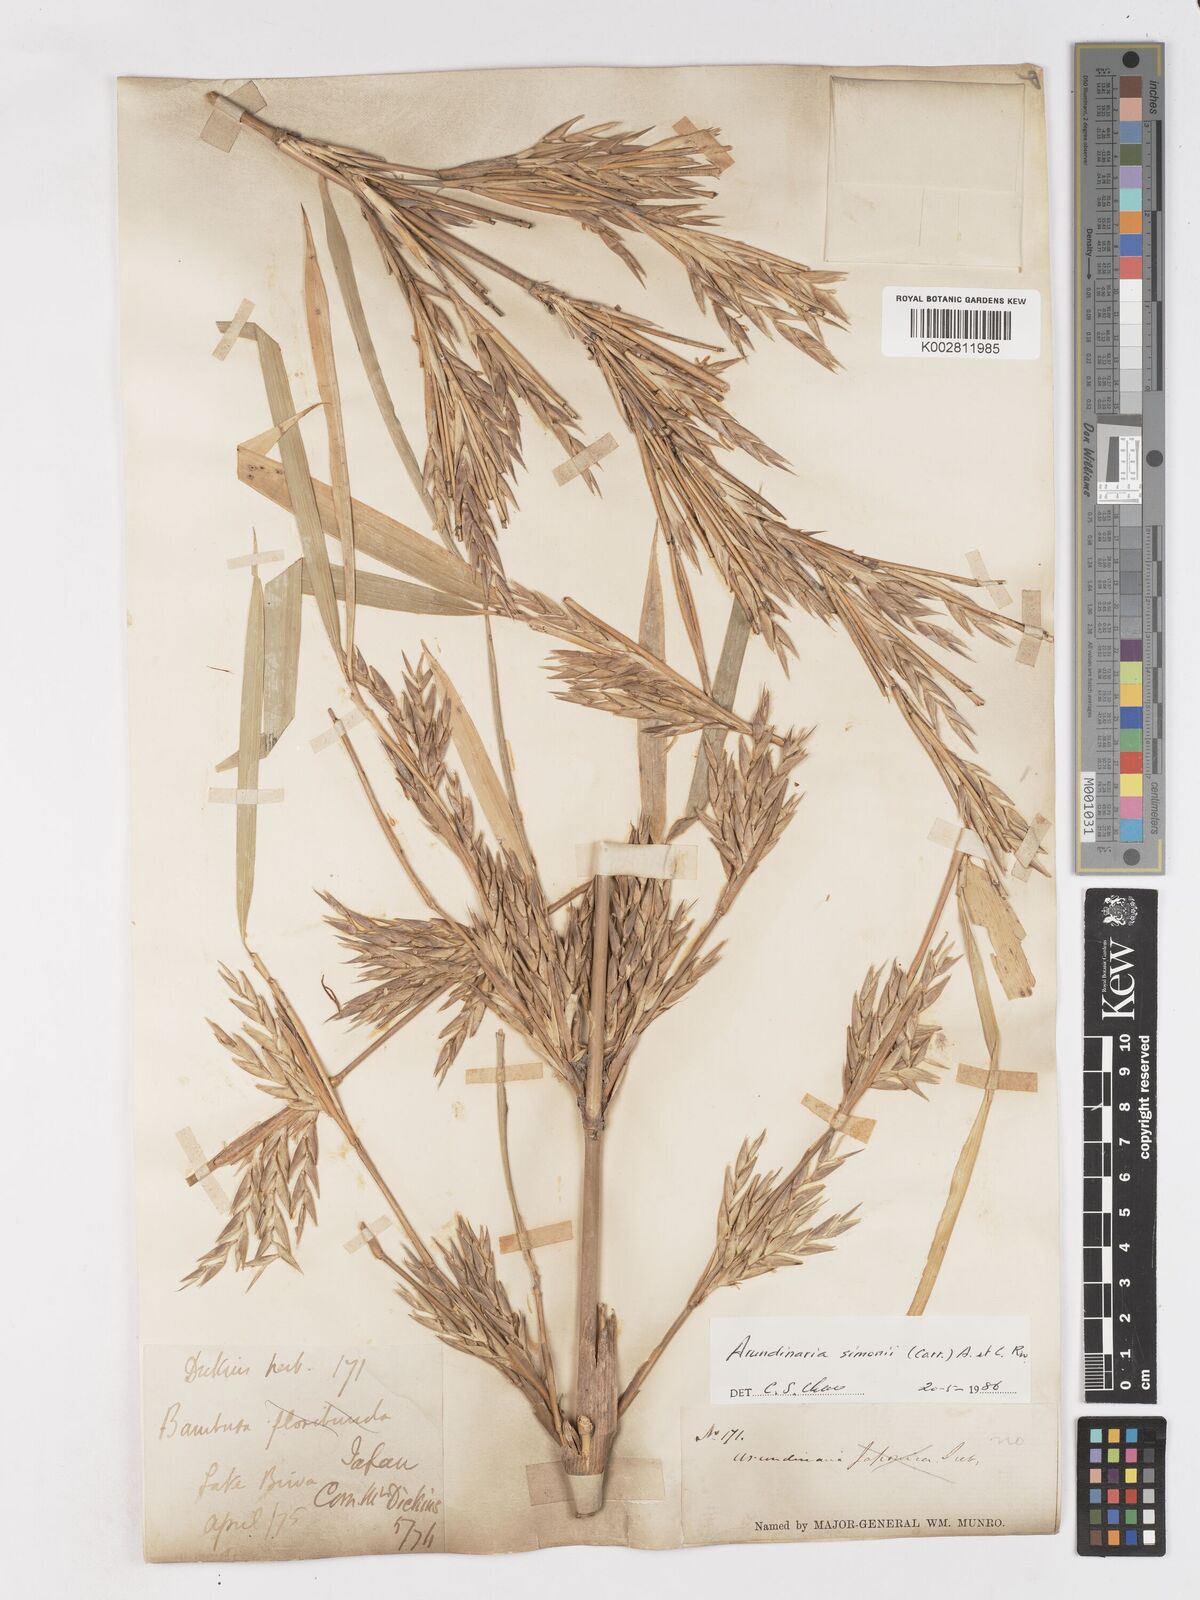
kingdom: Plantae
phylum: Tracheophyta
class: Liliopsida
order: Poales
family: Poaceae
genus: Pleioblastus
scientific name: Pleioblastus simonii
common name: Simon bamboo
